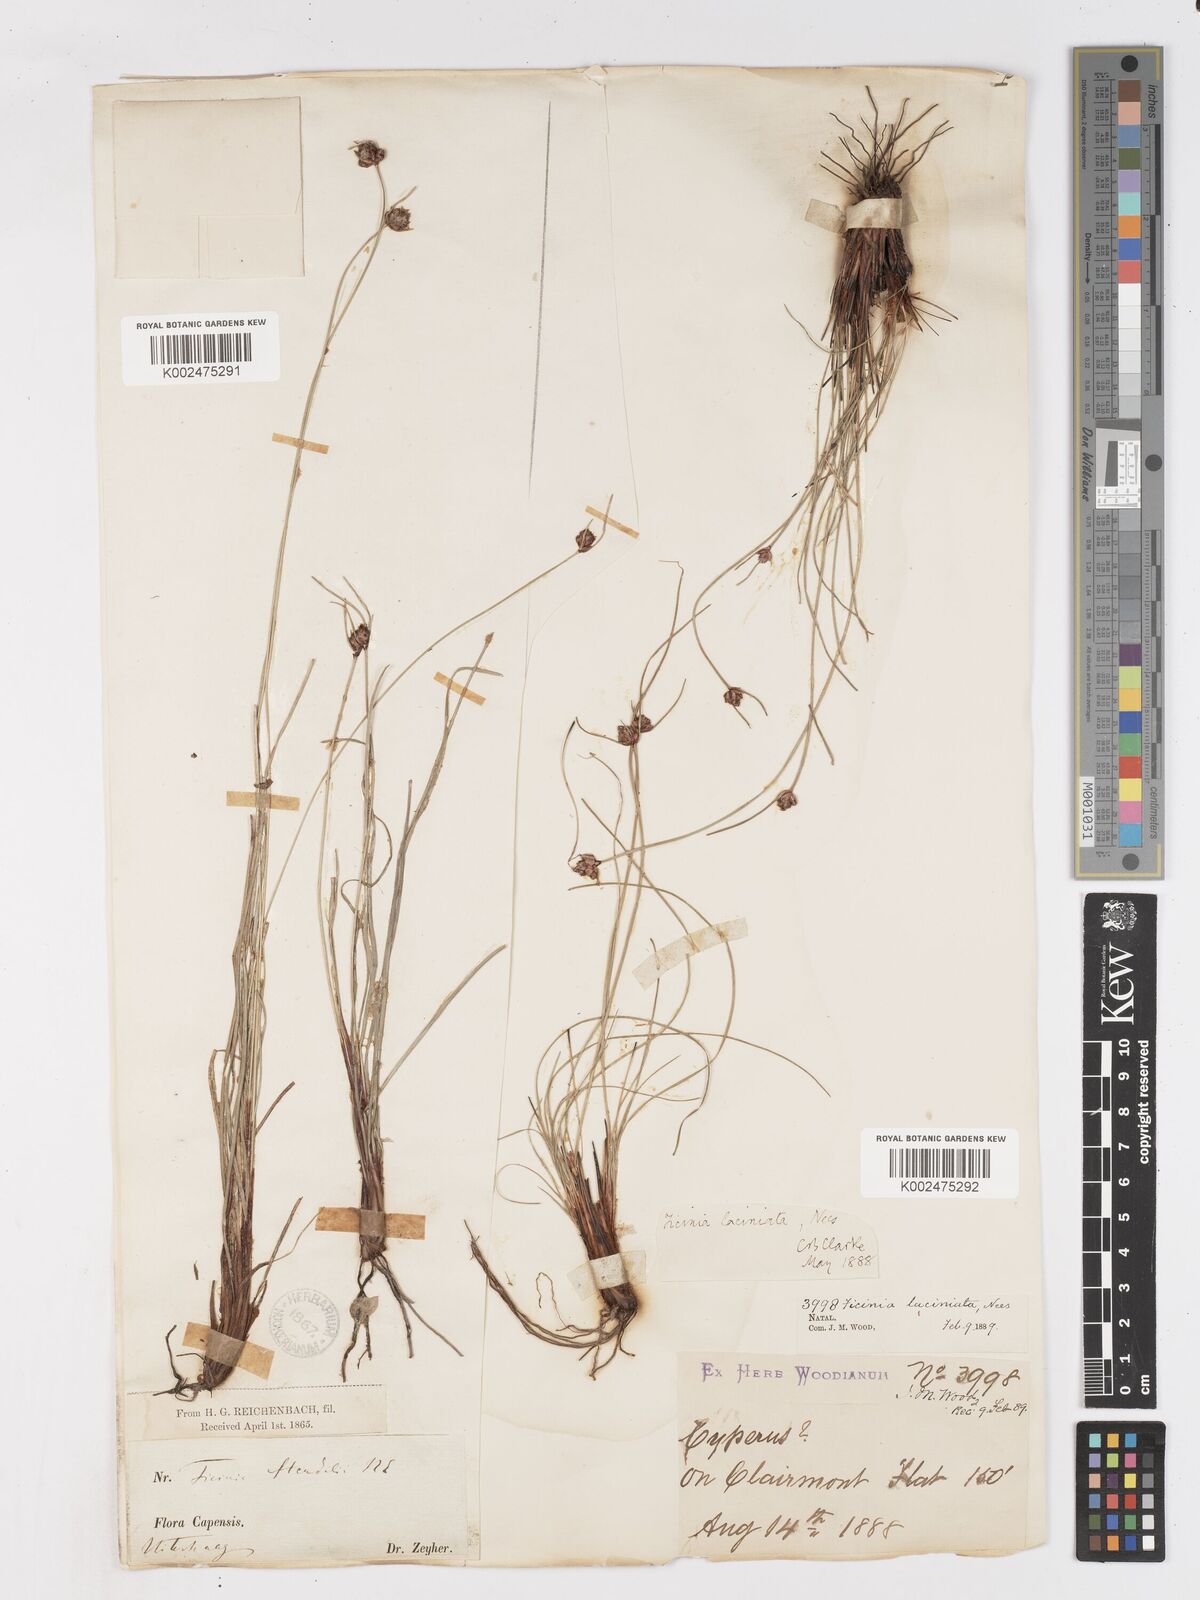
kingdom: Plantae
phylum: Tracheophyta
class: Liliopsida
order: Poales
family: Cyperaceae
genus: Ficinia
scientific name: Ficinia laciniata
